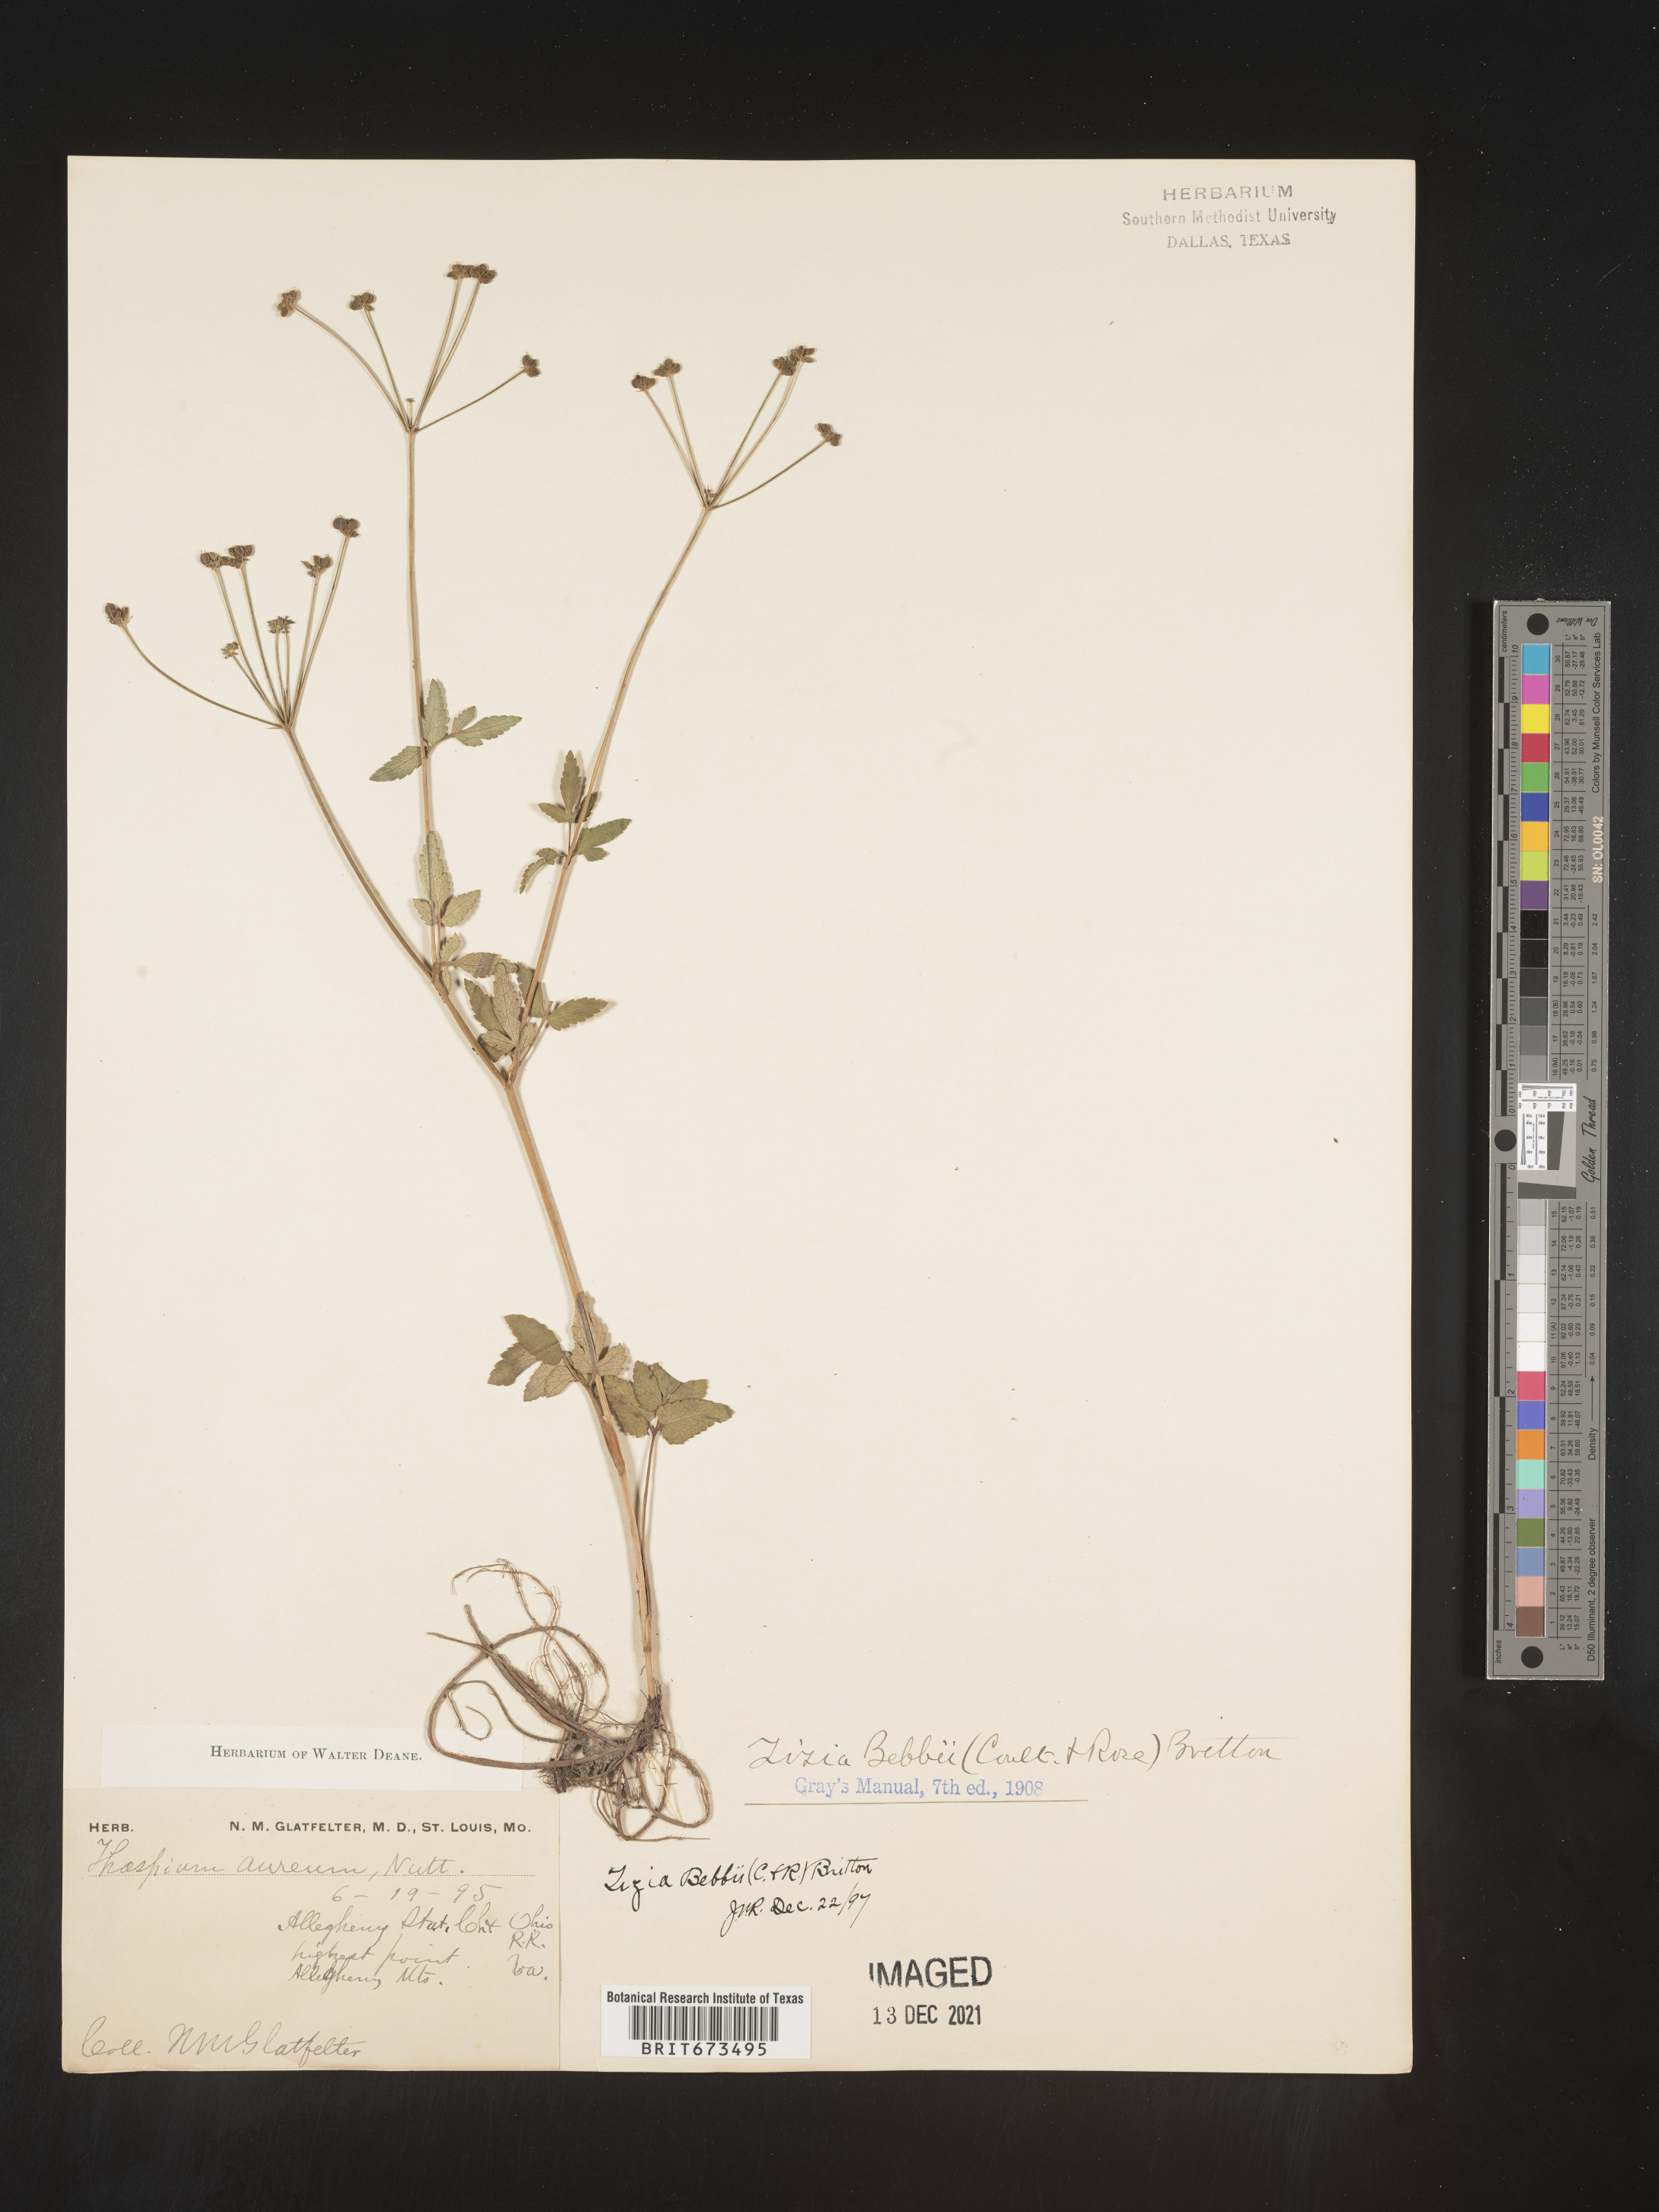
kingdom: Plantae
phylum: Tracheophyta
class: Magnoliopsida
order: Apiales
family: Apiaceae
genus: Zizia
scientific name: Zizia trifoliata
